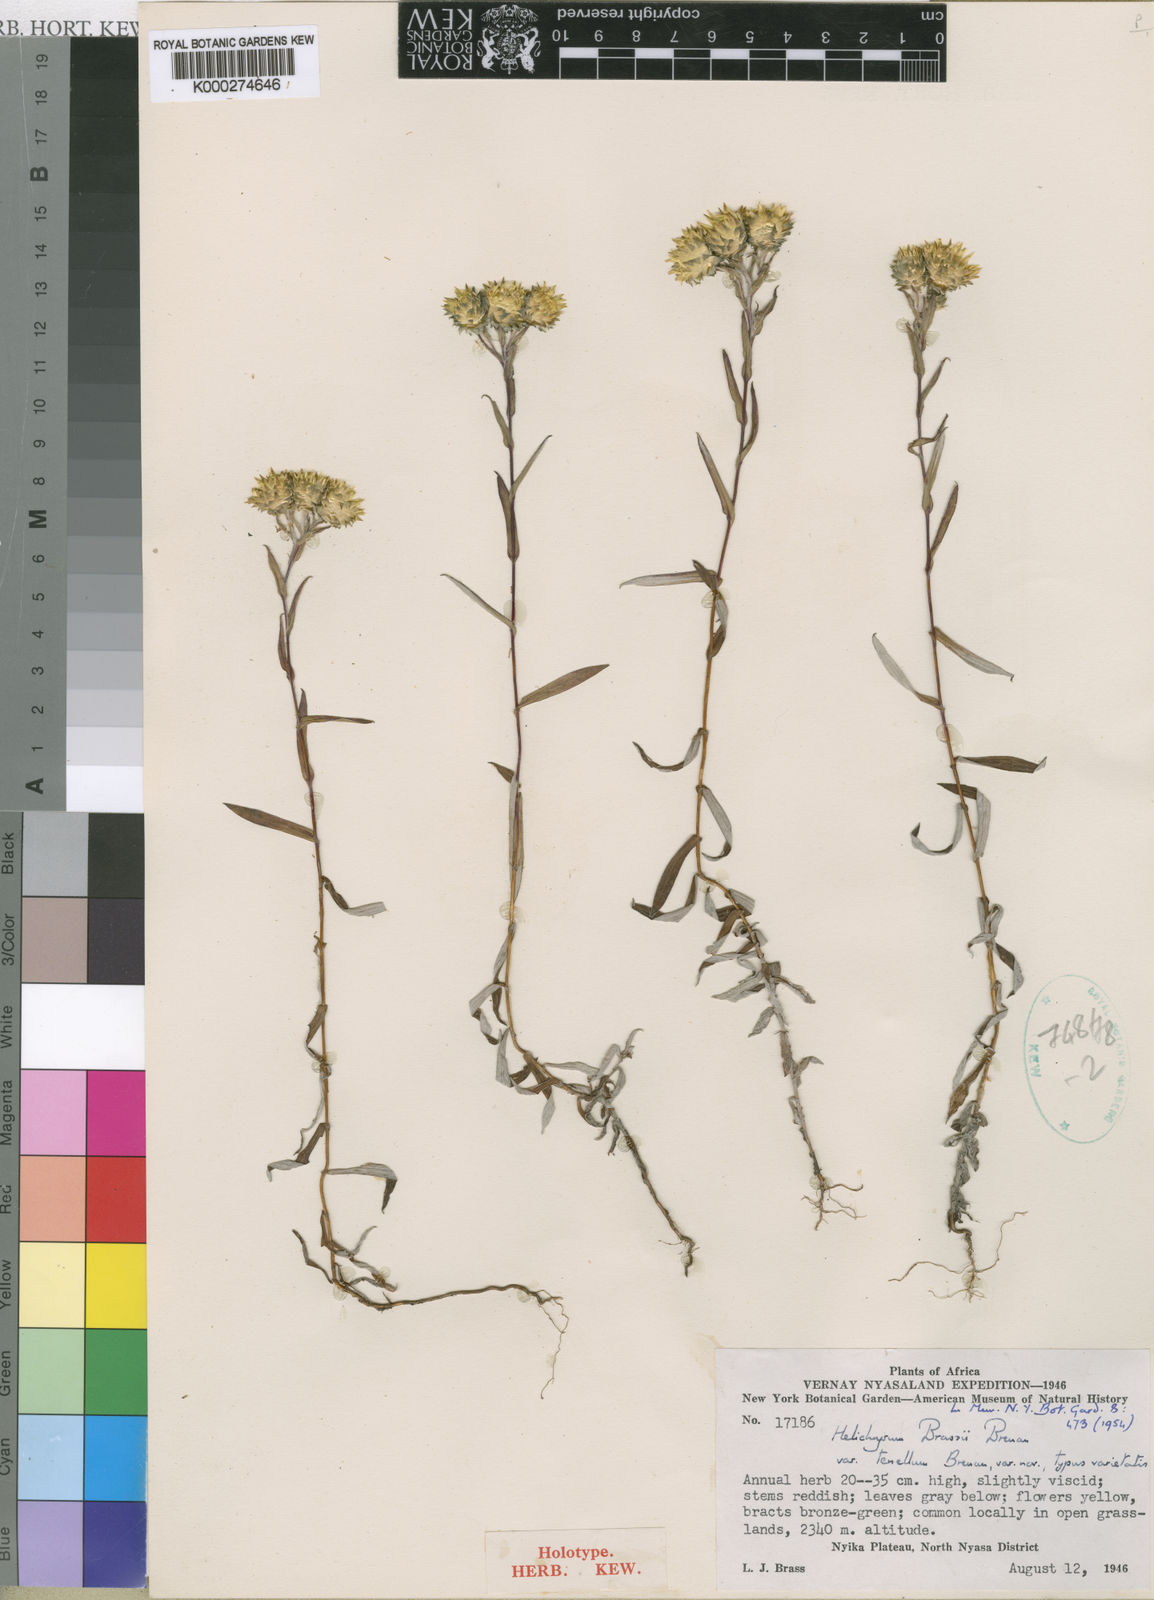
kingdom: Plantae
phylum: Tracheophyta
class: Magnoliopsida
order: Asterales
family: Asteraceae
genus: Helichrysum
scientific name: Helichrysum brassii
